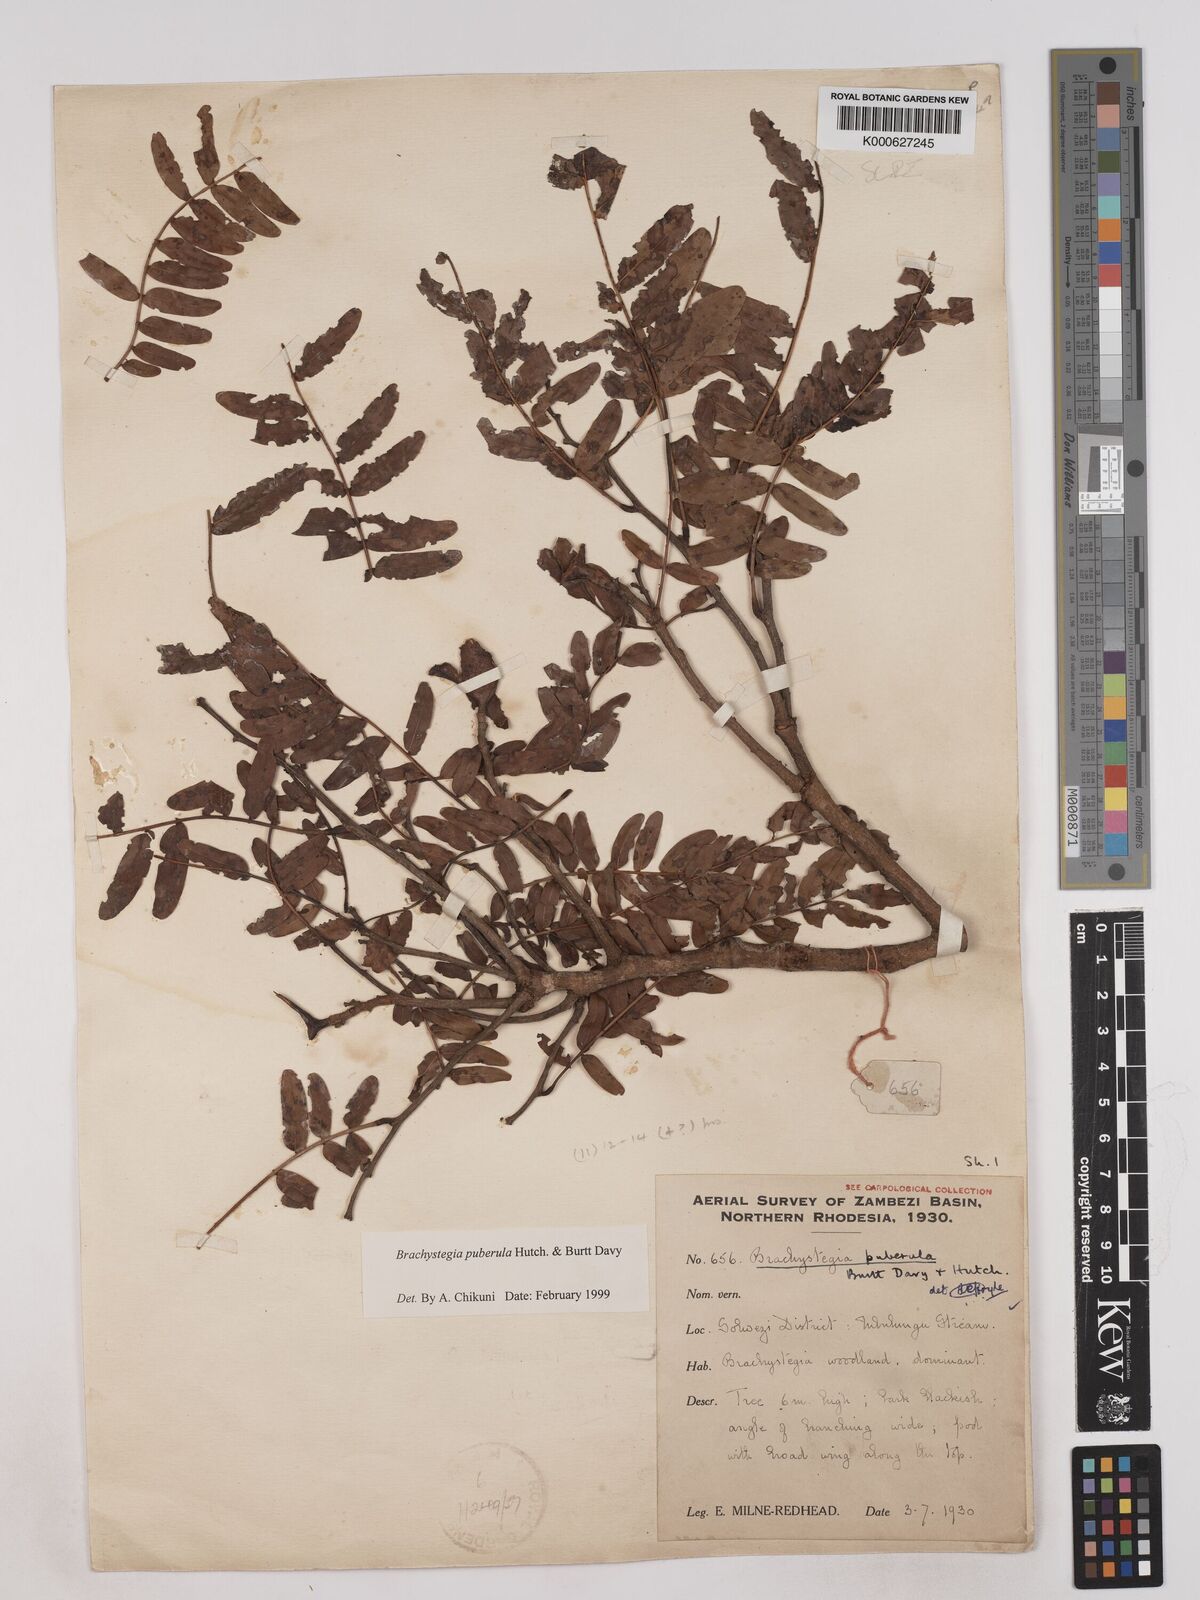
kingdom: Plantae
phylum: Tracheophyta
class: Magnoliopsida
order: Fabales
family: Fabaceae
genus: Brachystegia
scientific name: Brachystegia puberula
